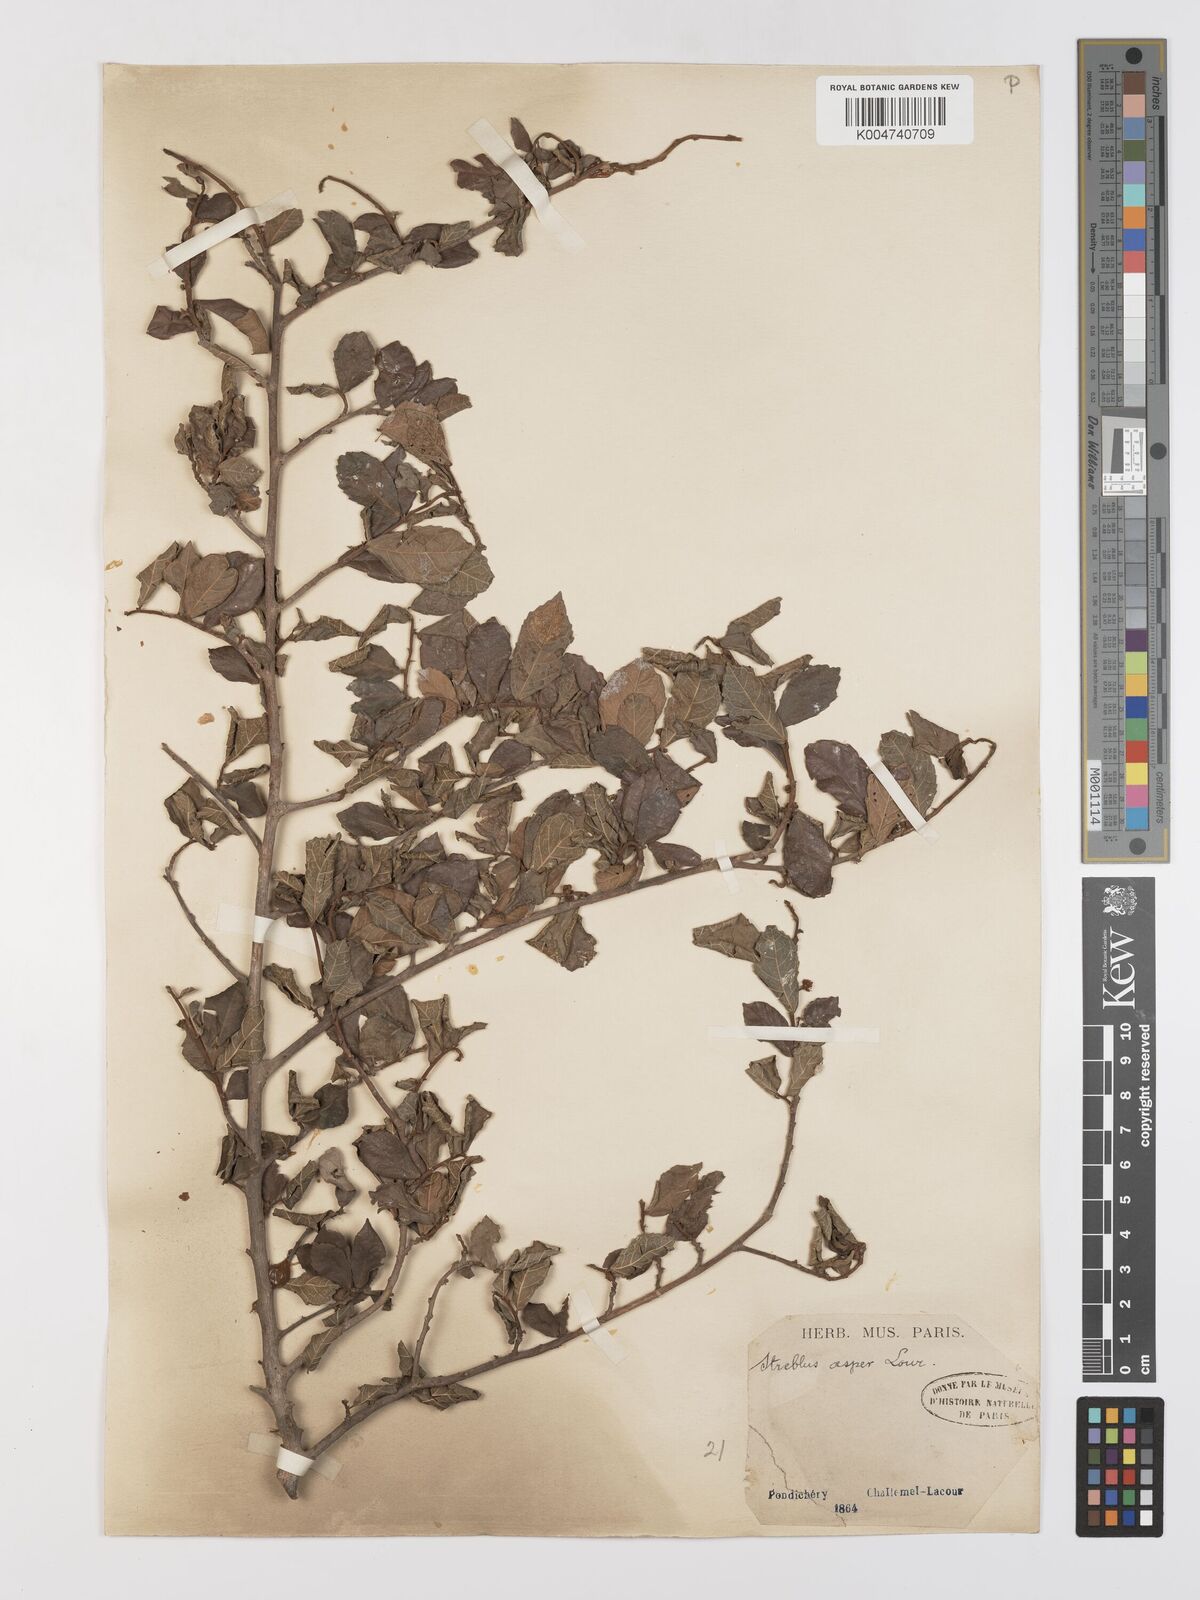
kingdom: Plantae
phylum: Tracheophyta
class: Magnoliopsida
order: Rosales
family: Moraceae
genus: Streblus
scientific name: Streblus asper
